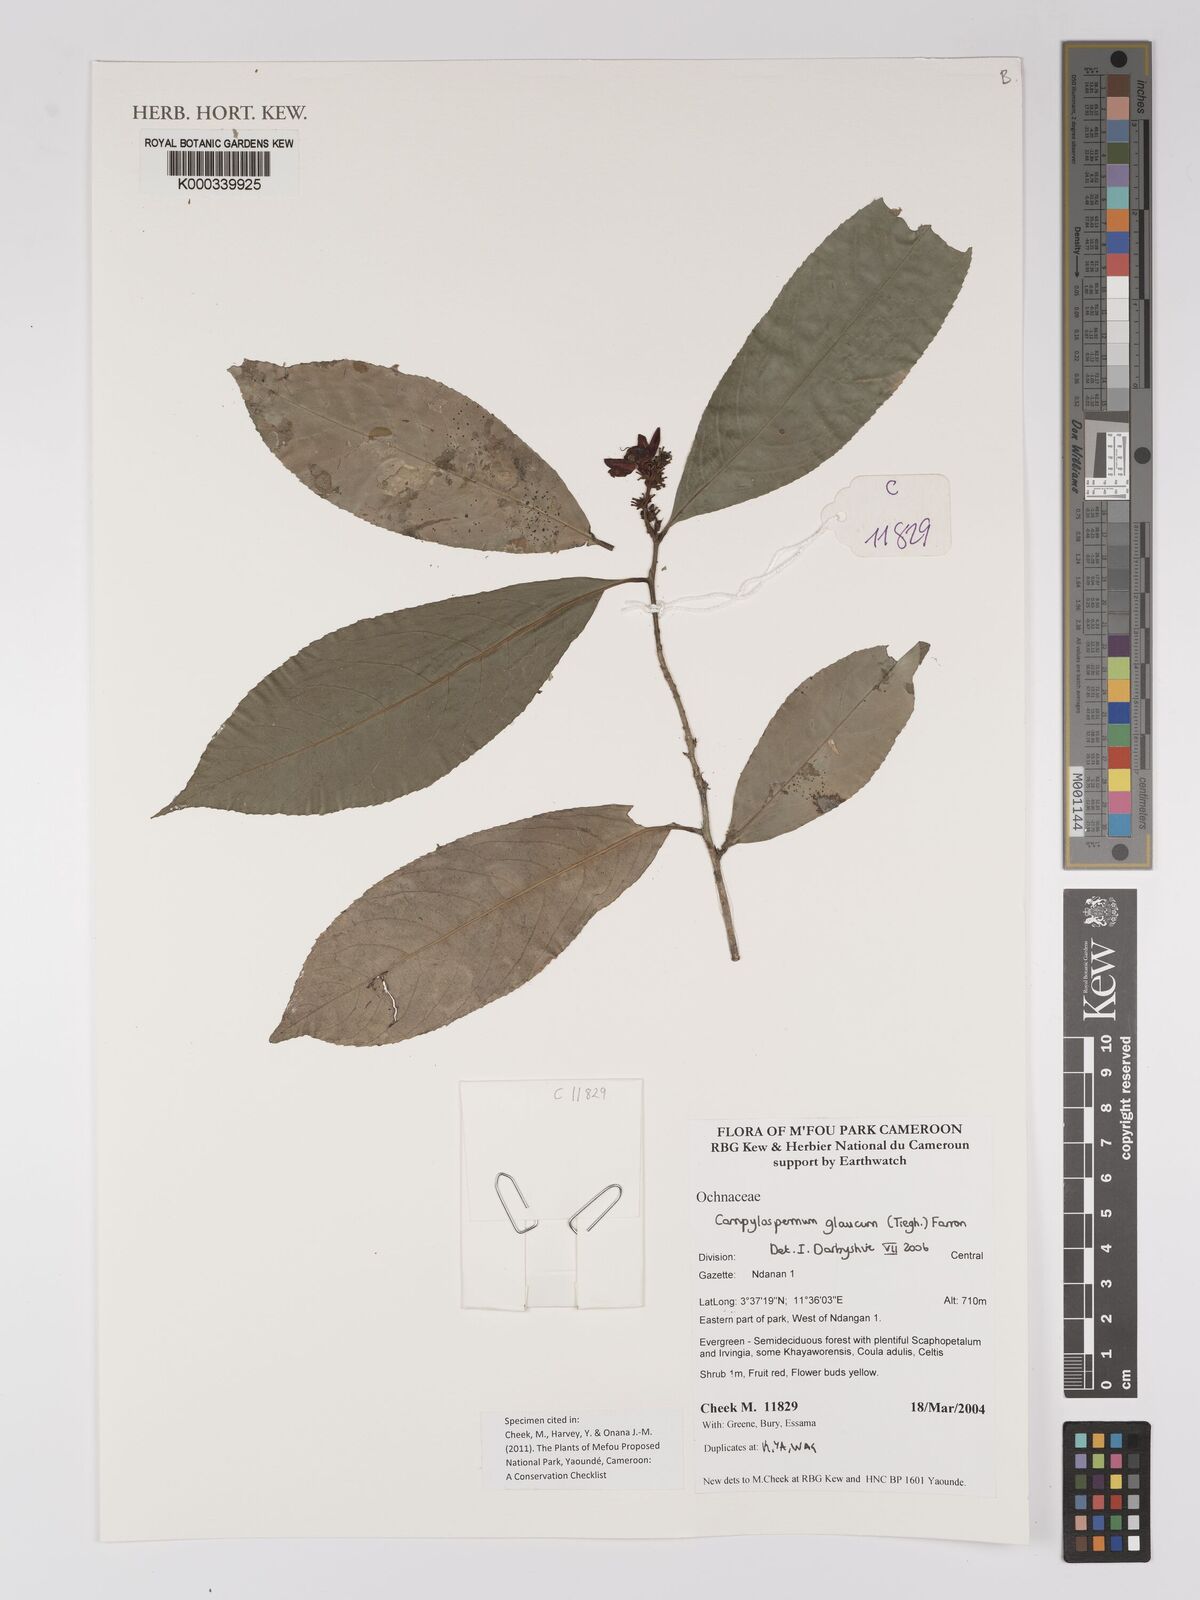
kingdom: Plantae
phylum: Tracheophyta
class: Magnoliopsida
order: Malpighiales
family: Ochnaceae
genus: Campylospermum
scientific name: Campylospermum glaucum
